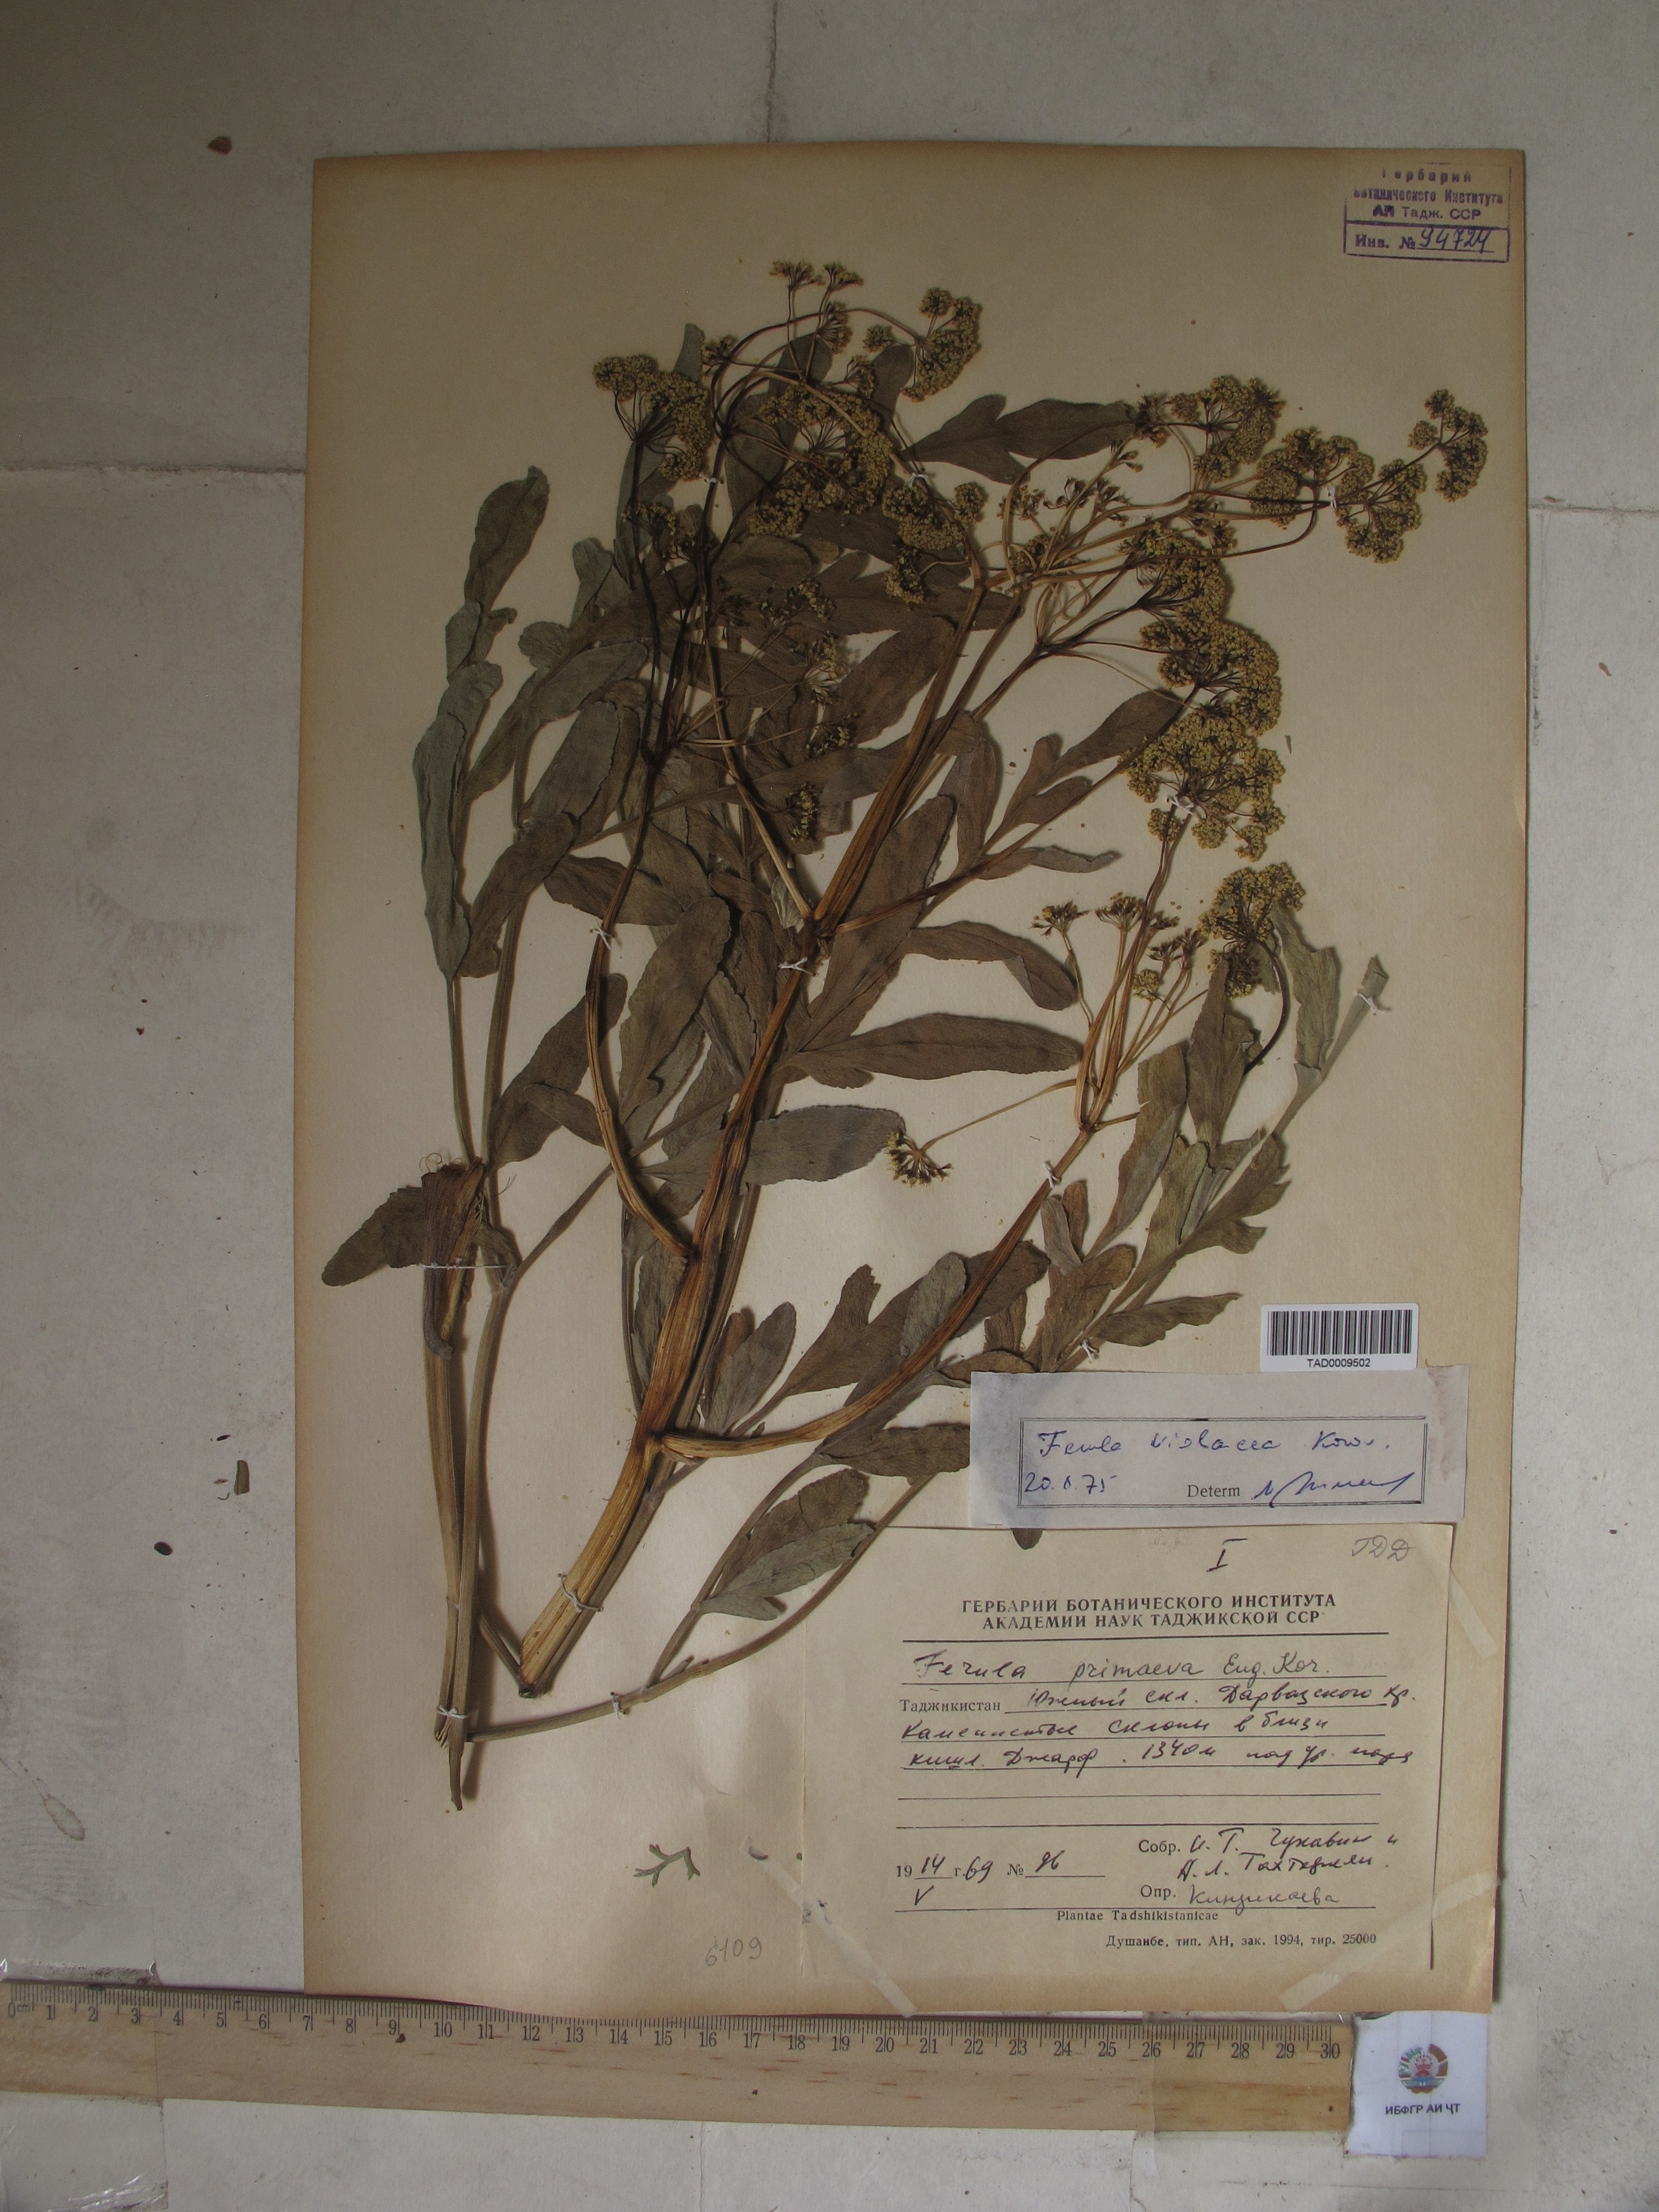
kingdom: Plantae
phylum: Tracheophyta
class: Magnoliopsida
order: Apiales
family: Apiaceae
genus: Ferula
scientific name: Ferula violacea
